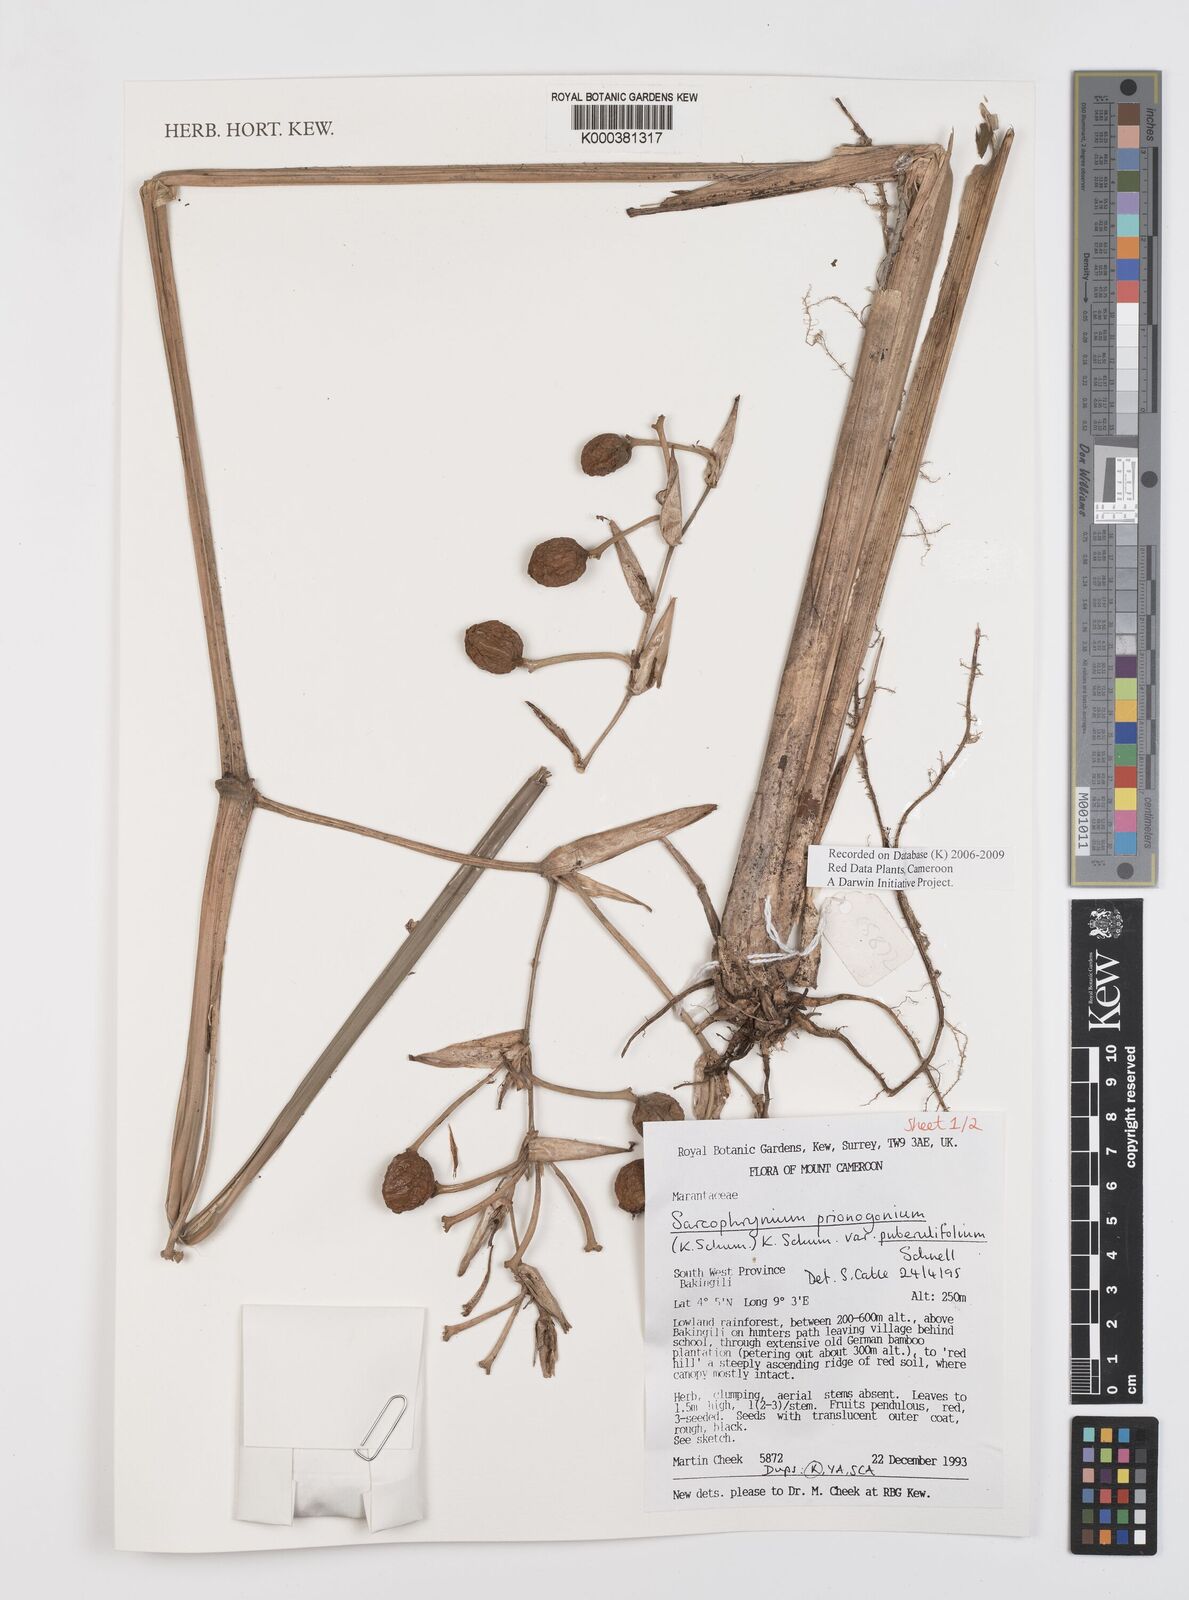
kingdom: Plantae
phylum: Tracheophyta
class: Liliopsida
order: Zingiberales
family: Marantaceae
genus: Sarcophrynium
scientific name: Sarcophrynium prionogonium
